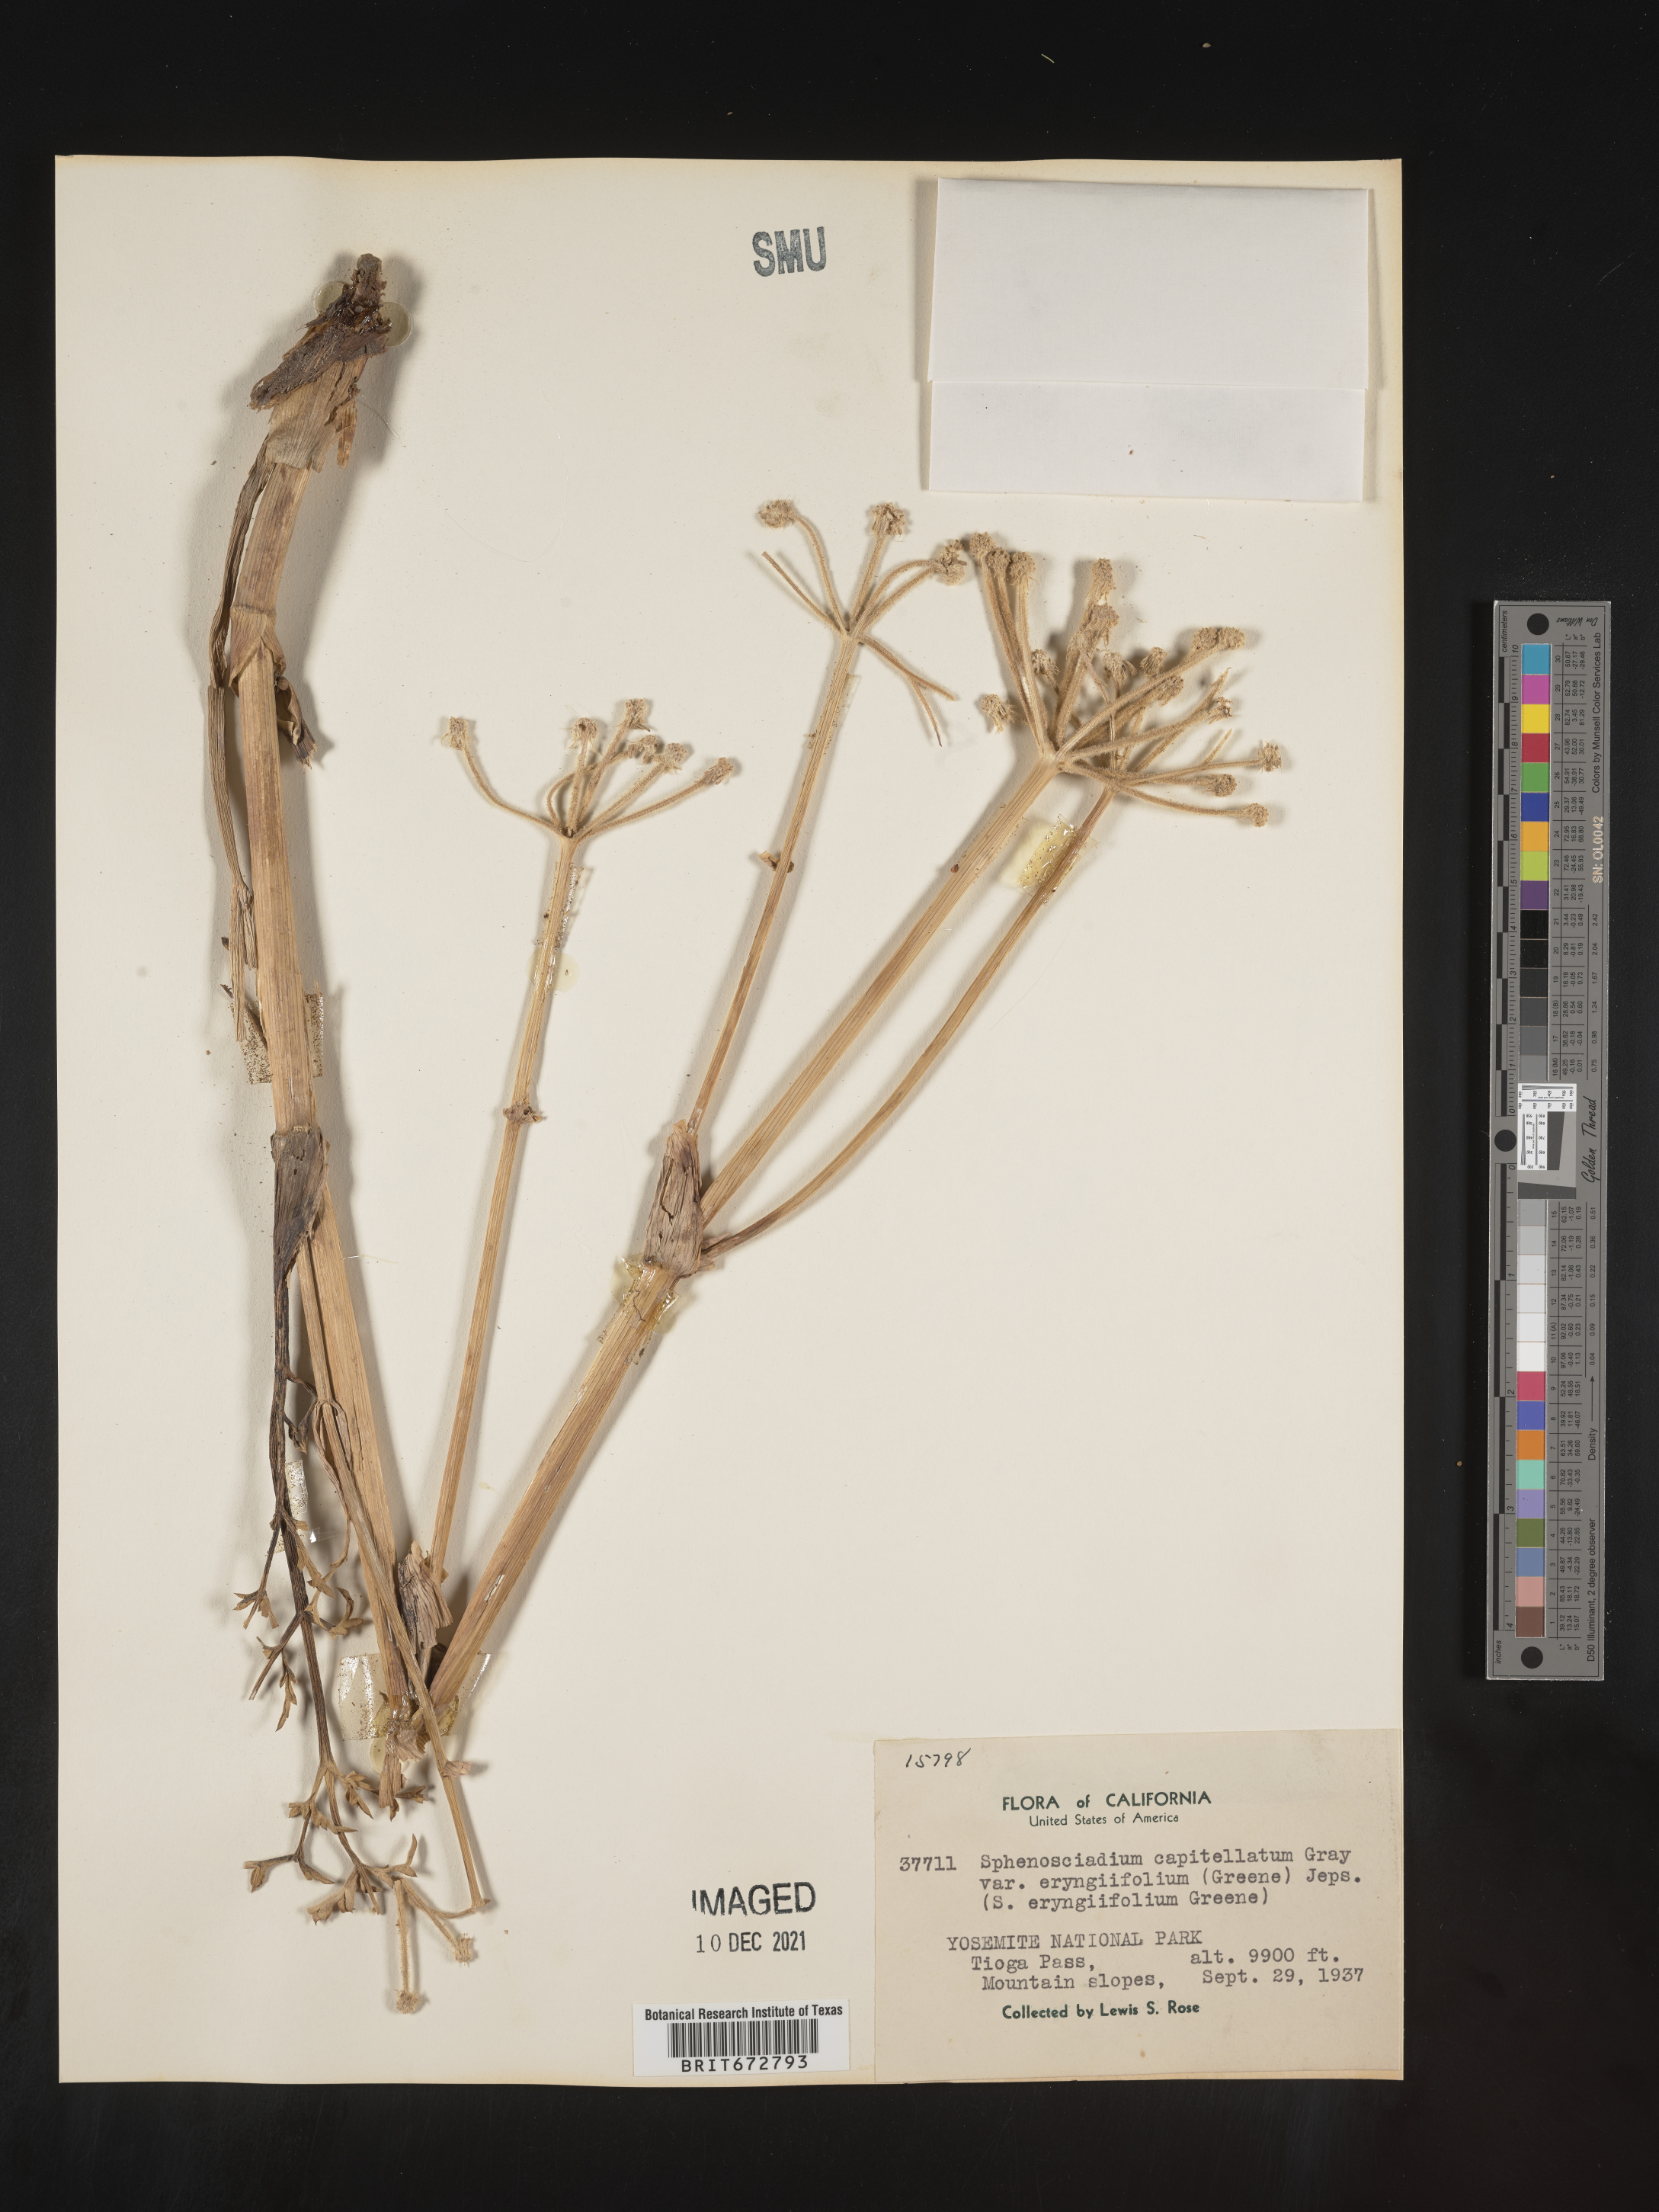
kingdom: Plantae
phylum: Tracheophyta
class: Magnoliopsida
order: Apiales
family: Apiaceae
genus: Angelica
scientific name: Angelica
